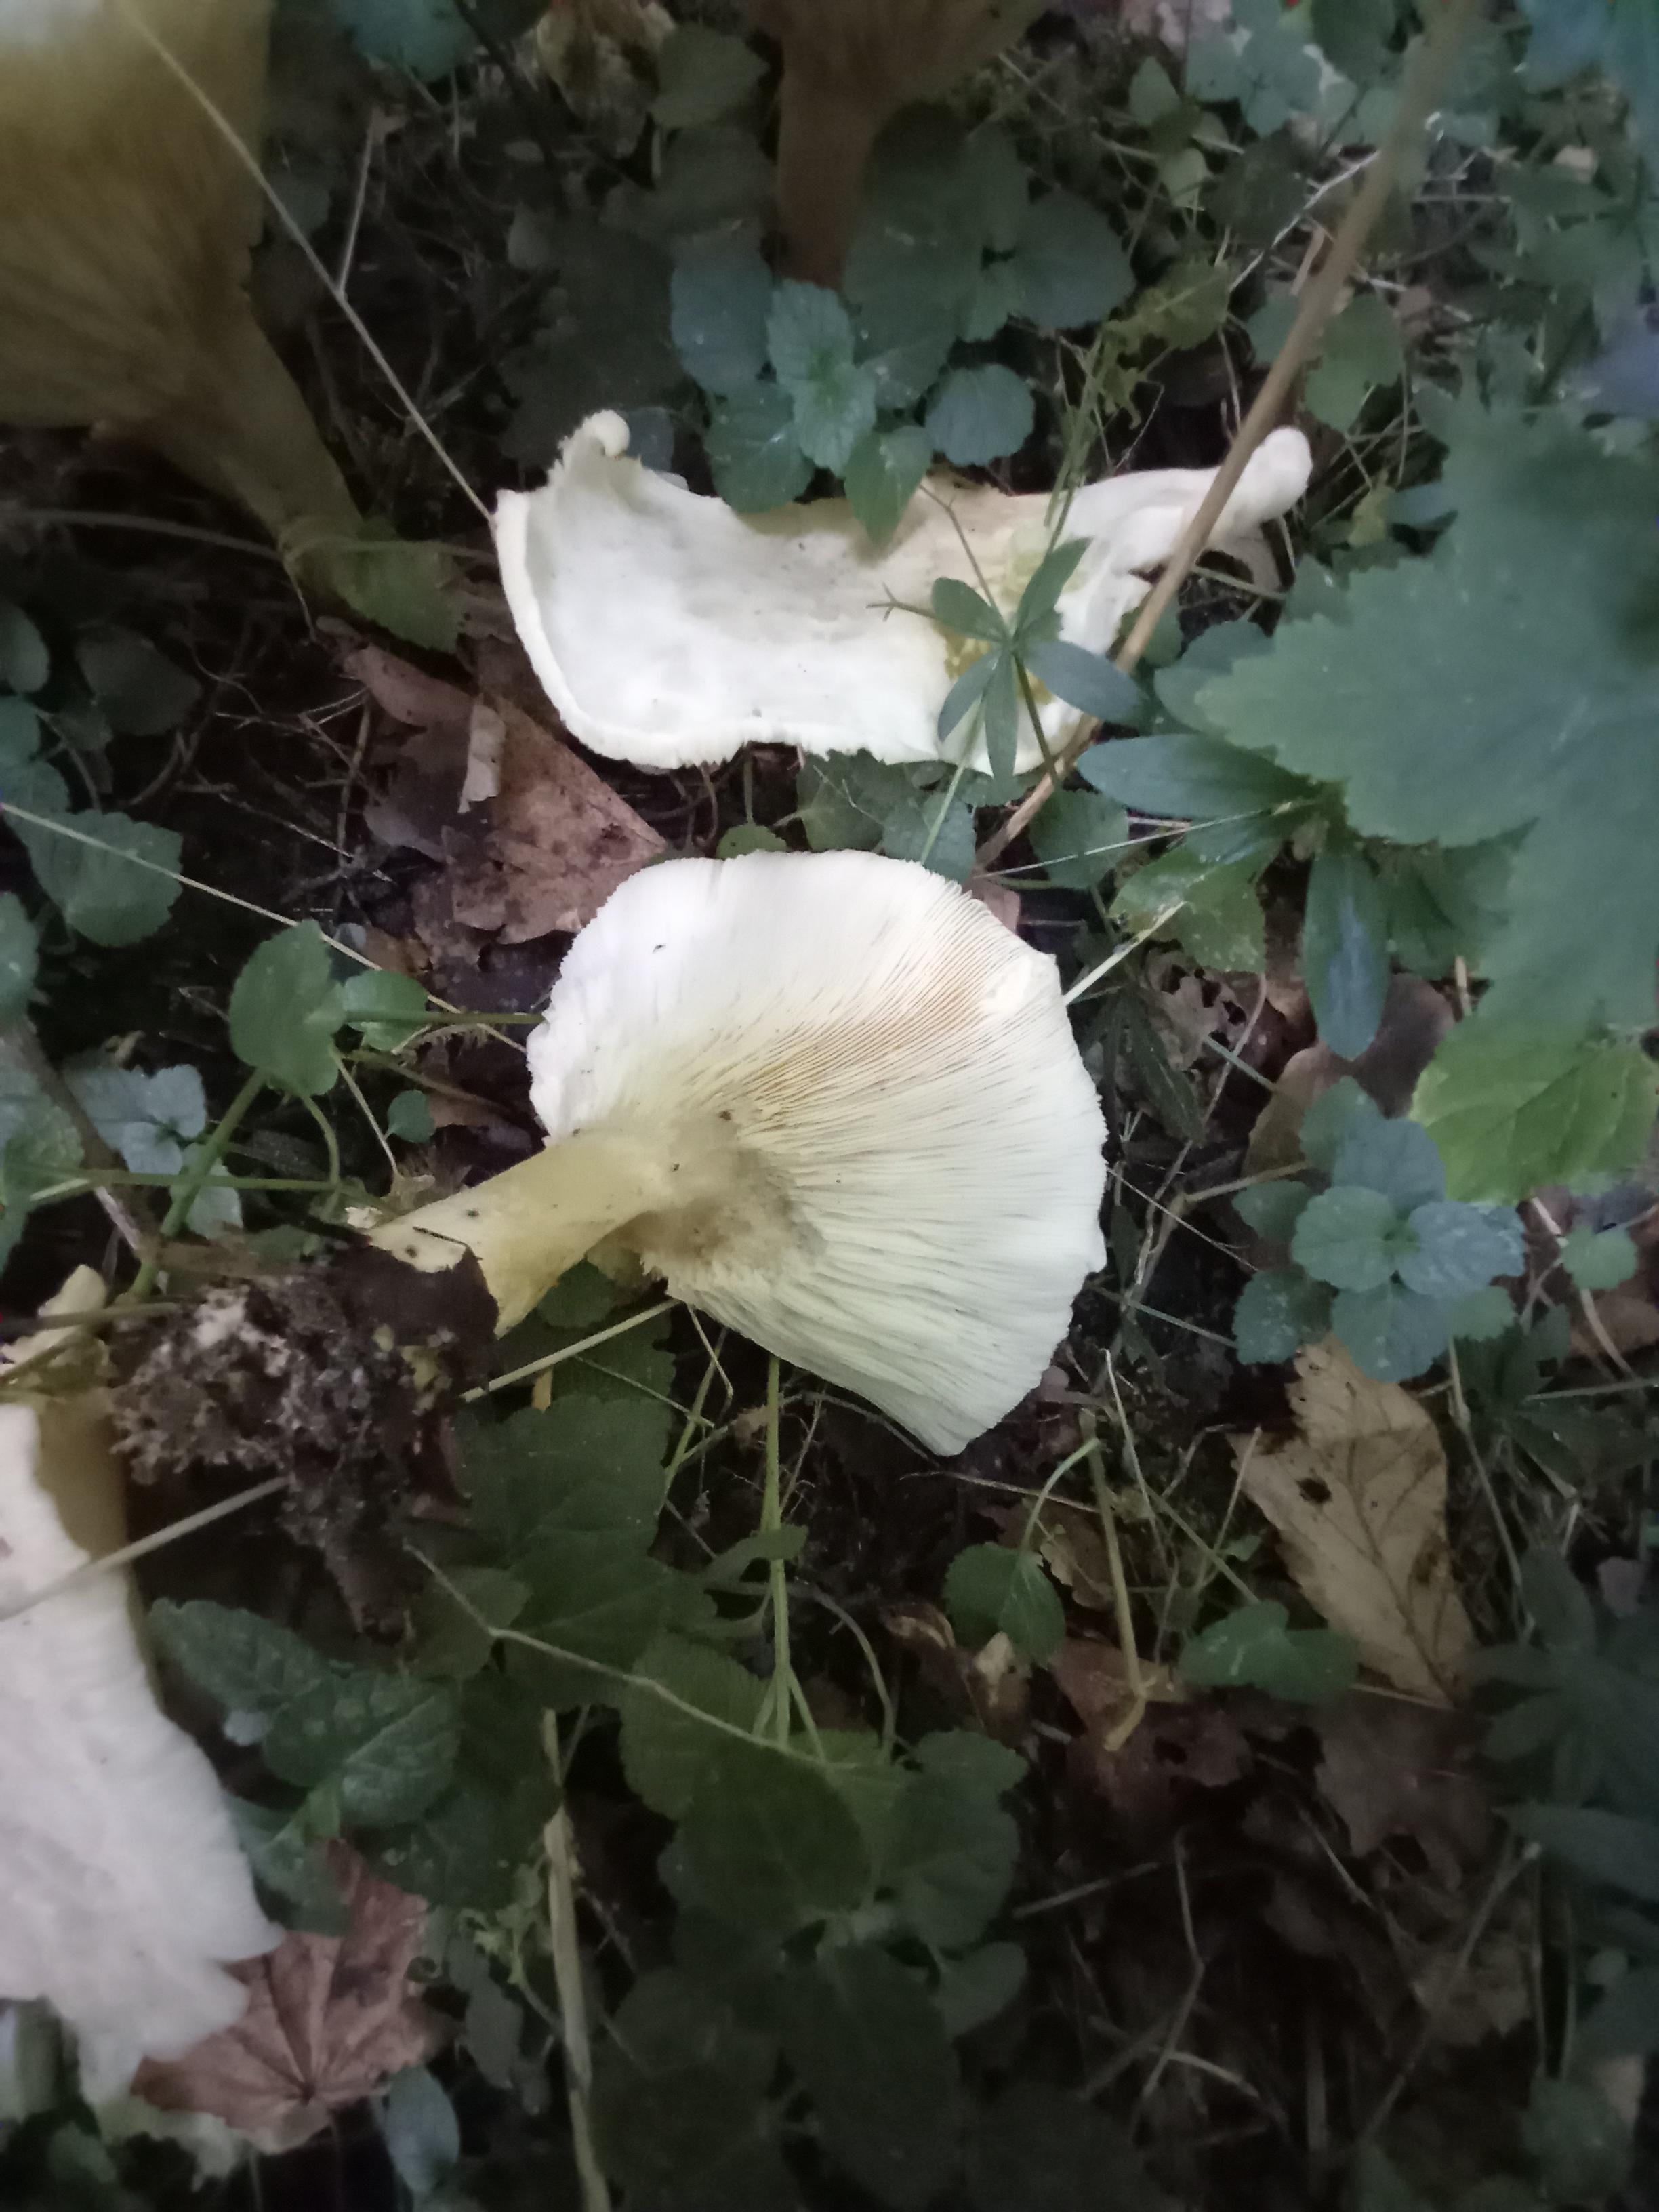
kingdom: Fungi
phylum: Basidiomycota
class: Agaricomycetes
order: Agaricales
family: Tricholomataceae
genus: Aspropaxillus
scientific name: Aspropaxillus giganteus
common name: kæmpe-tragtridderhat
